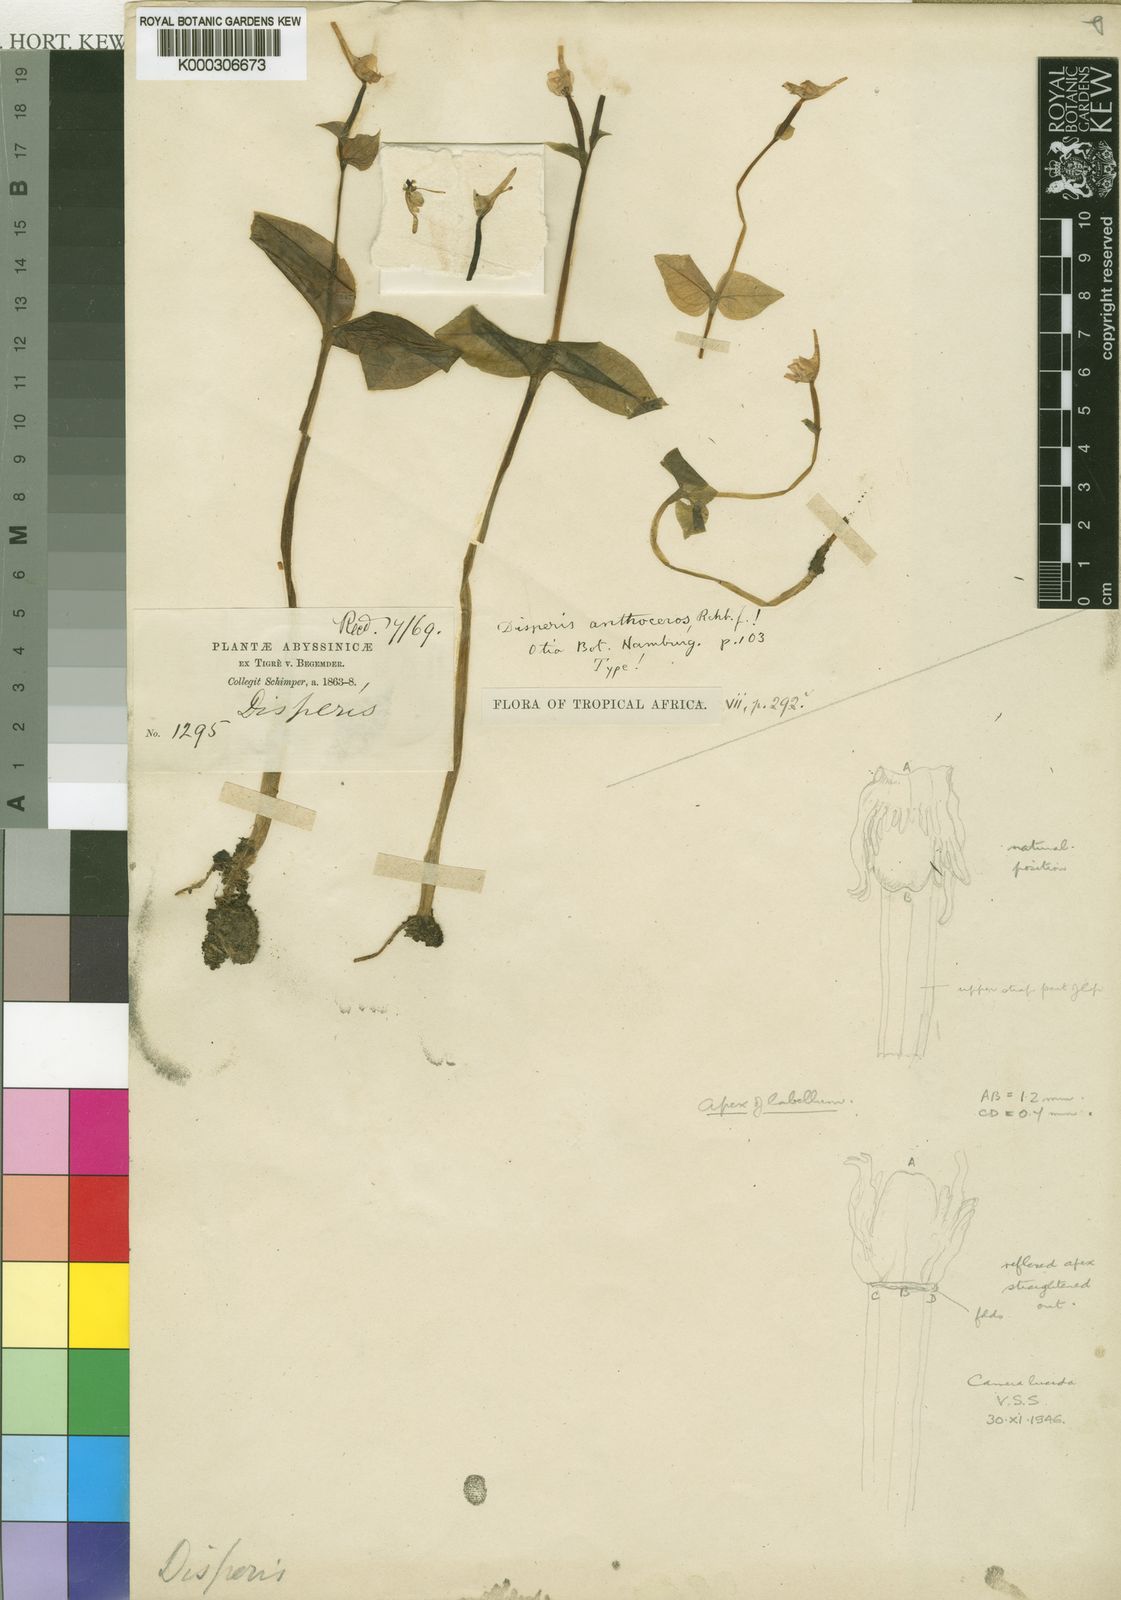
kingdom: Plantae
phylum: Tracheophyta
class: Liliopsida
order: Asparagales
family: Orchidaceae
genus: Disperis
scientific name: Disperis anthoceros
